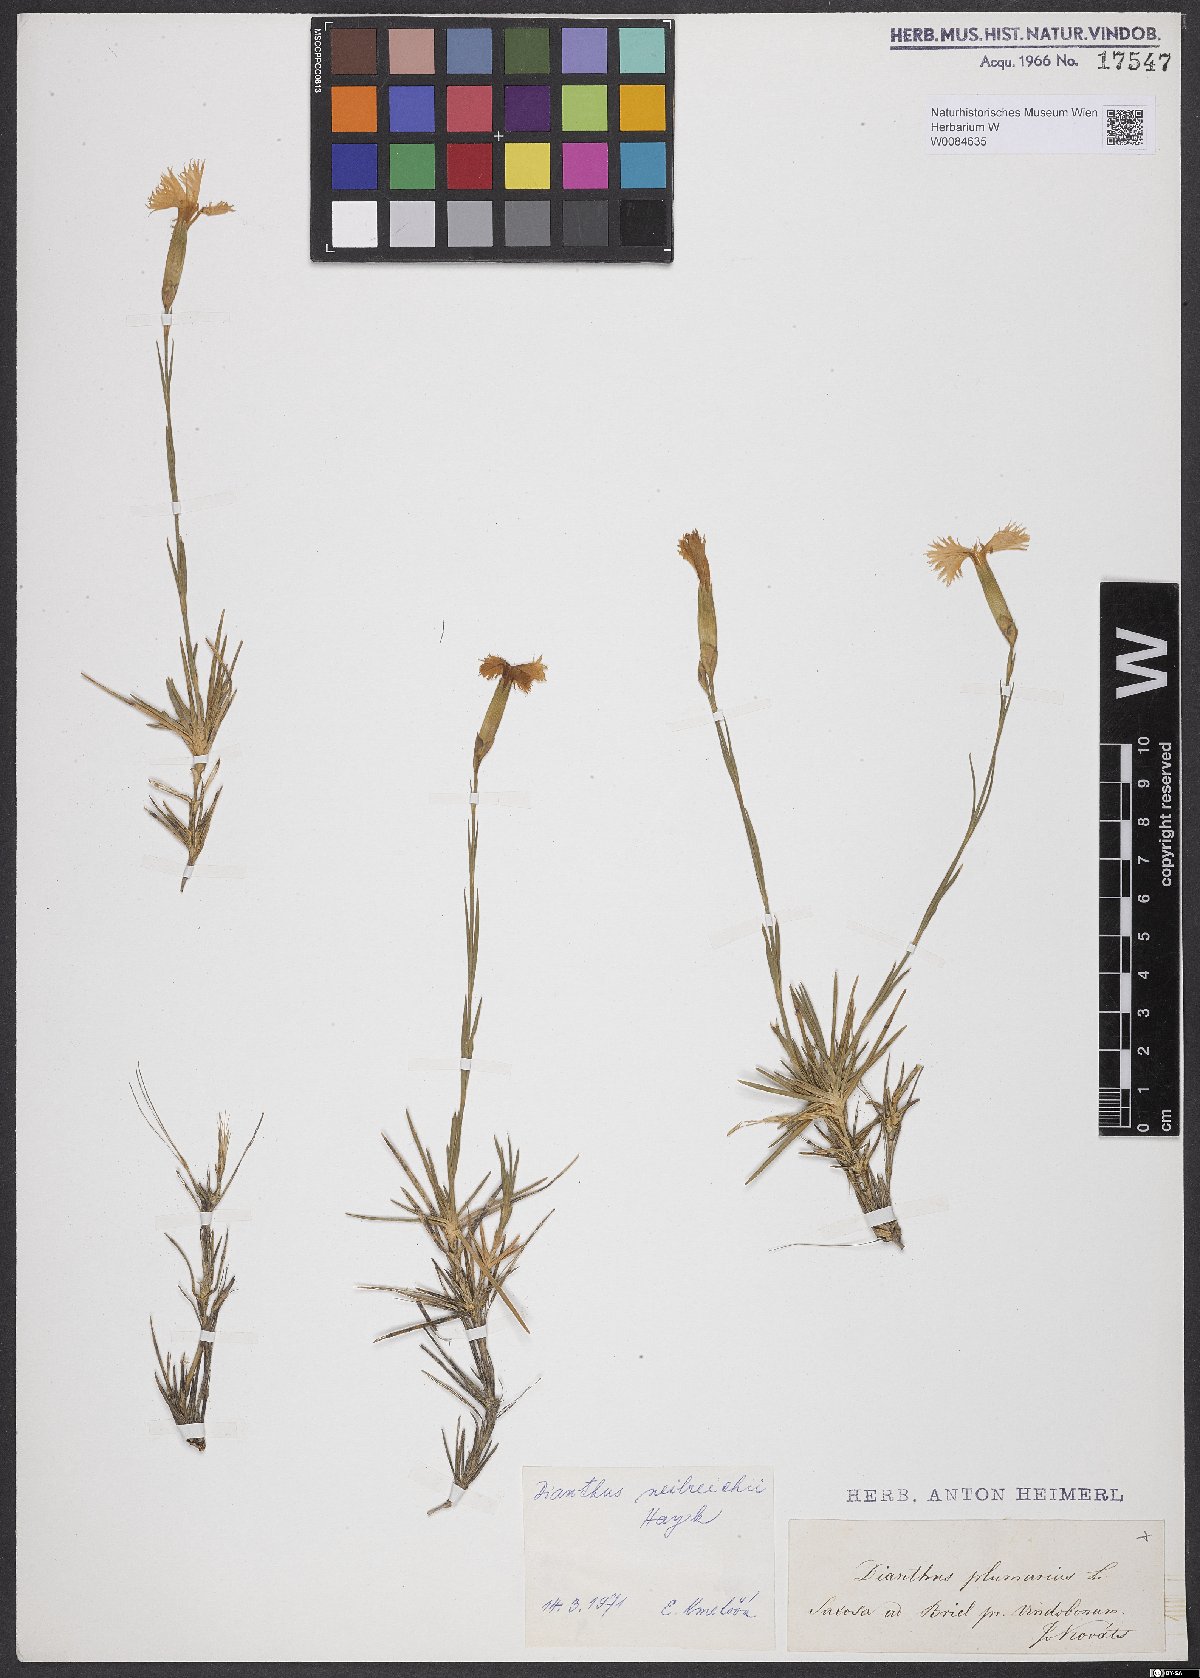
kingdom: Plantae
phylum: Tracheophyta
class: Magnoliopsida
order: Caryophyllales
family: Caryophyllaceae
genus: Dianthus
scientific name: Dianthus plumarius
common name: Pink
